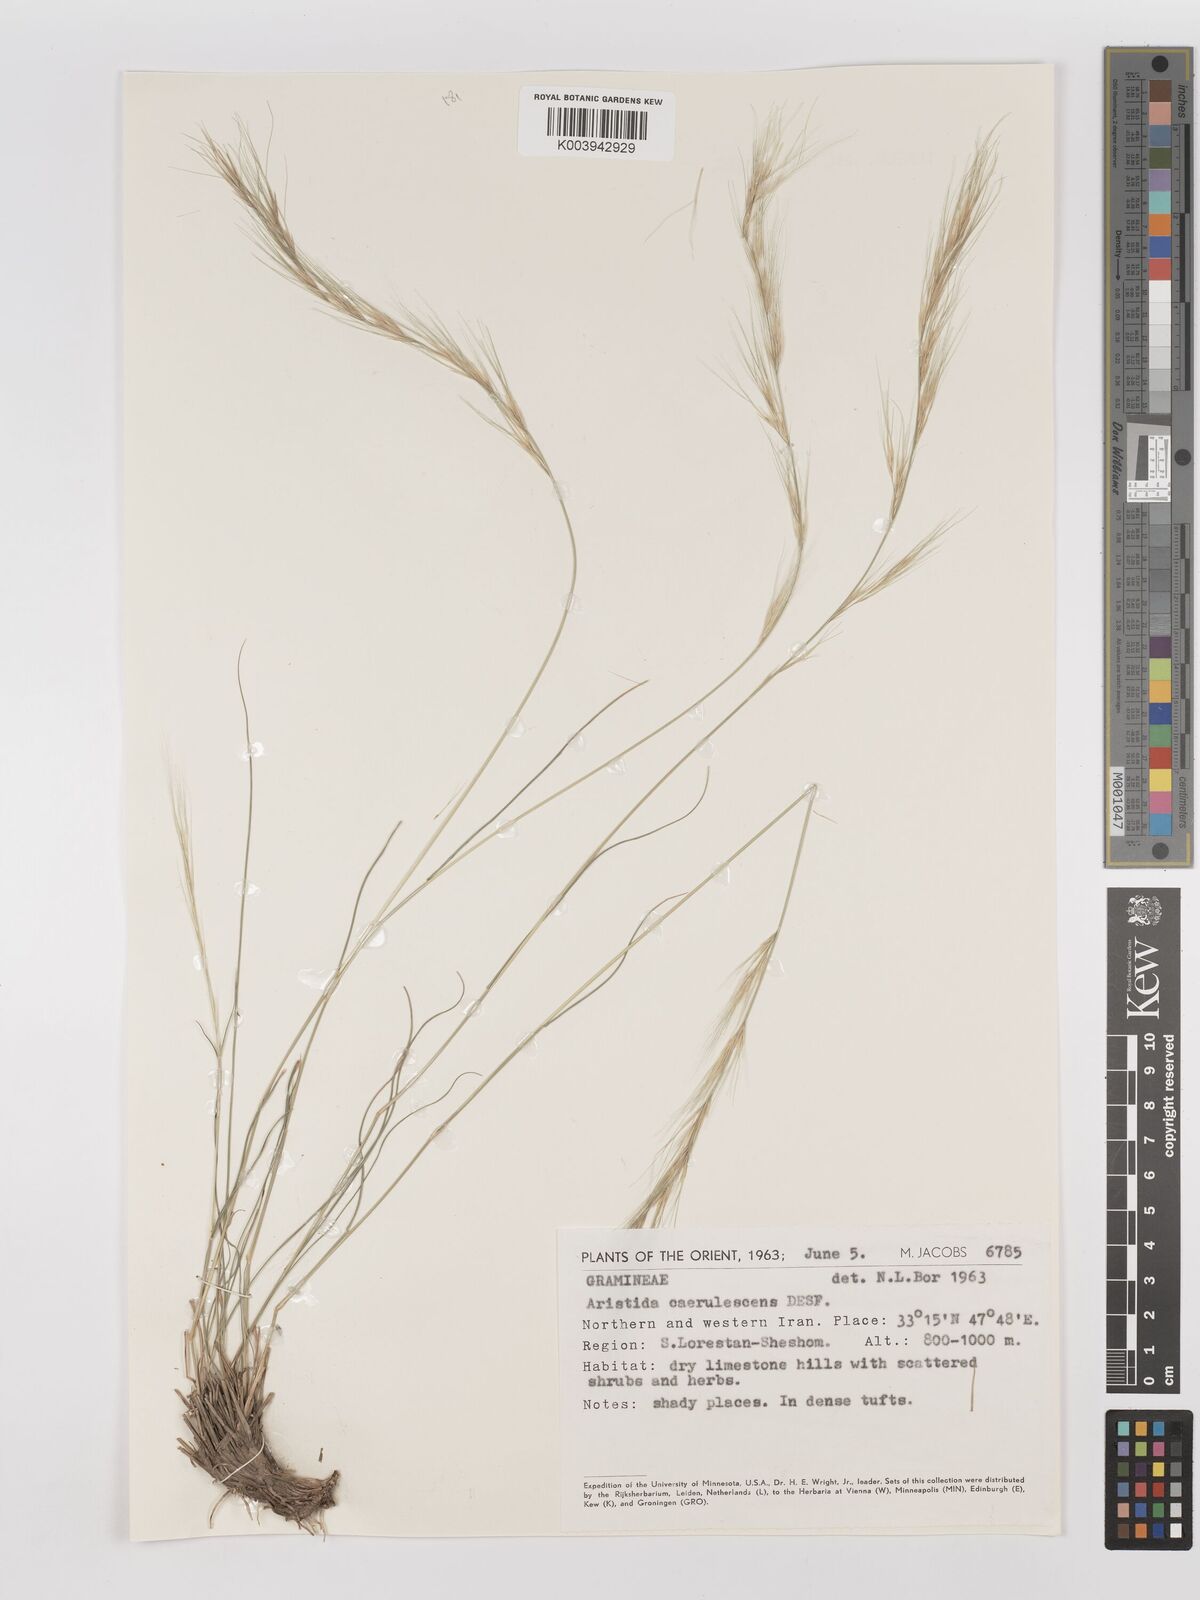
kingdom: Plantae
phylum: Tracheophyta
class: Liliopsida
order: Poales
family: Poaceae
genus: Aristida
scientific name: Aristida adscensionis
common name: Sixweeks threeawn
